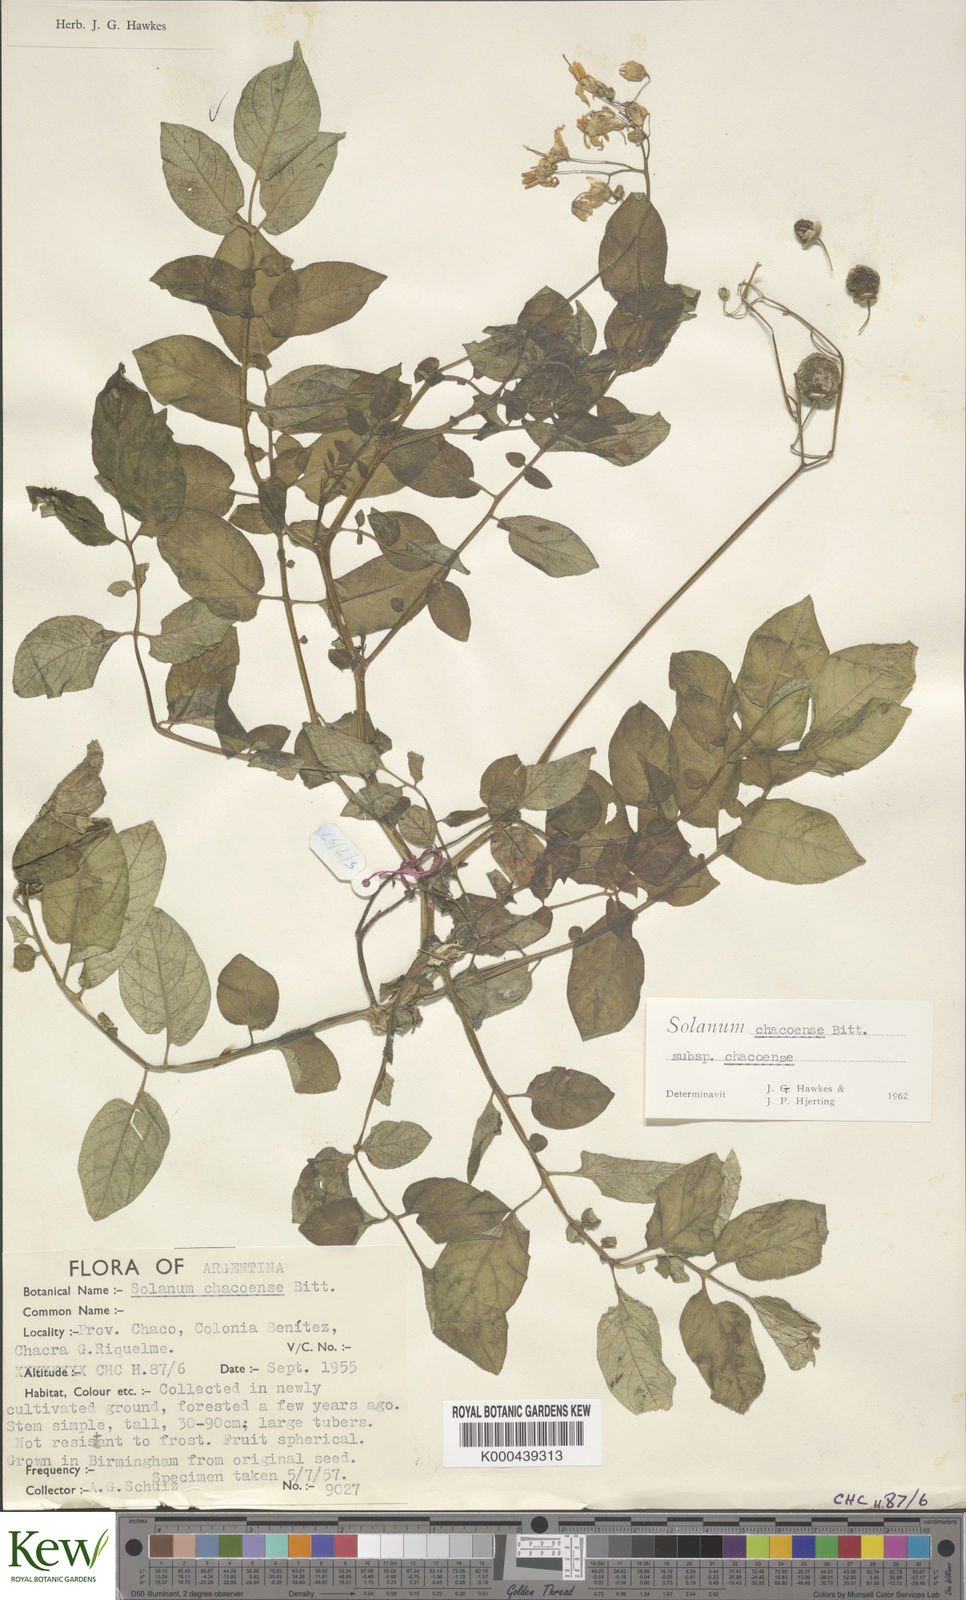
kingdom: Plantae
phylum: Tracheophyta
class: Magnoliopsida
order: Solanales
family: Solanaceae
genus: Solanum
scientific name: Solanum chacoense
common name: Chaco potato
